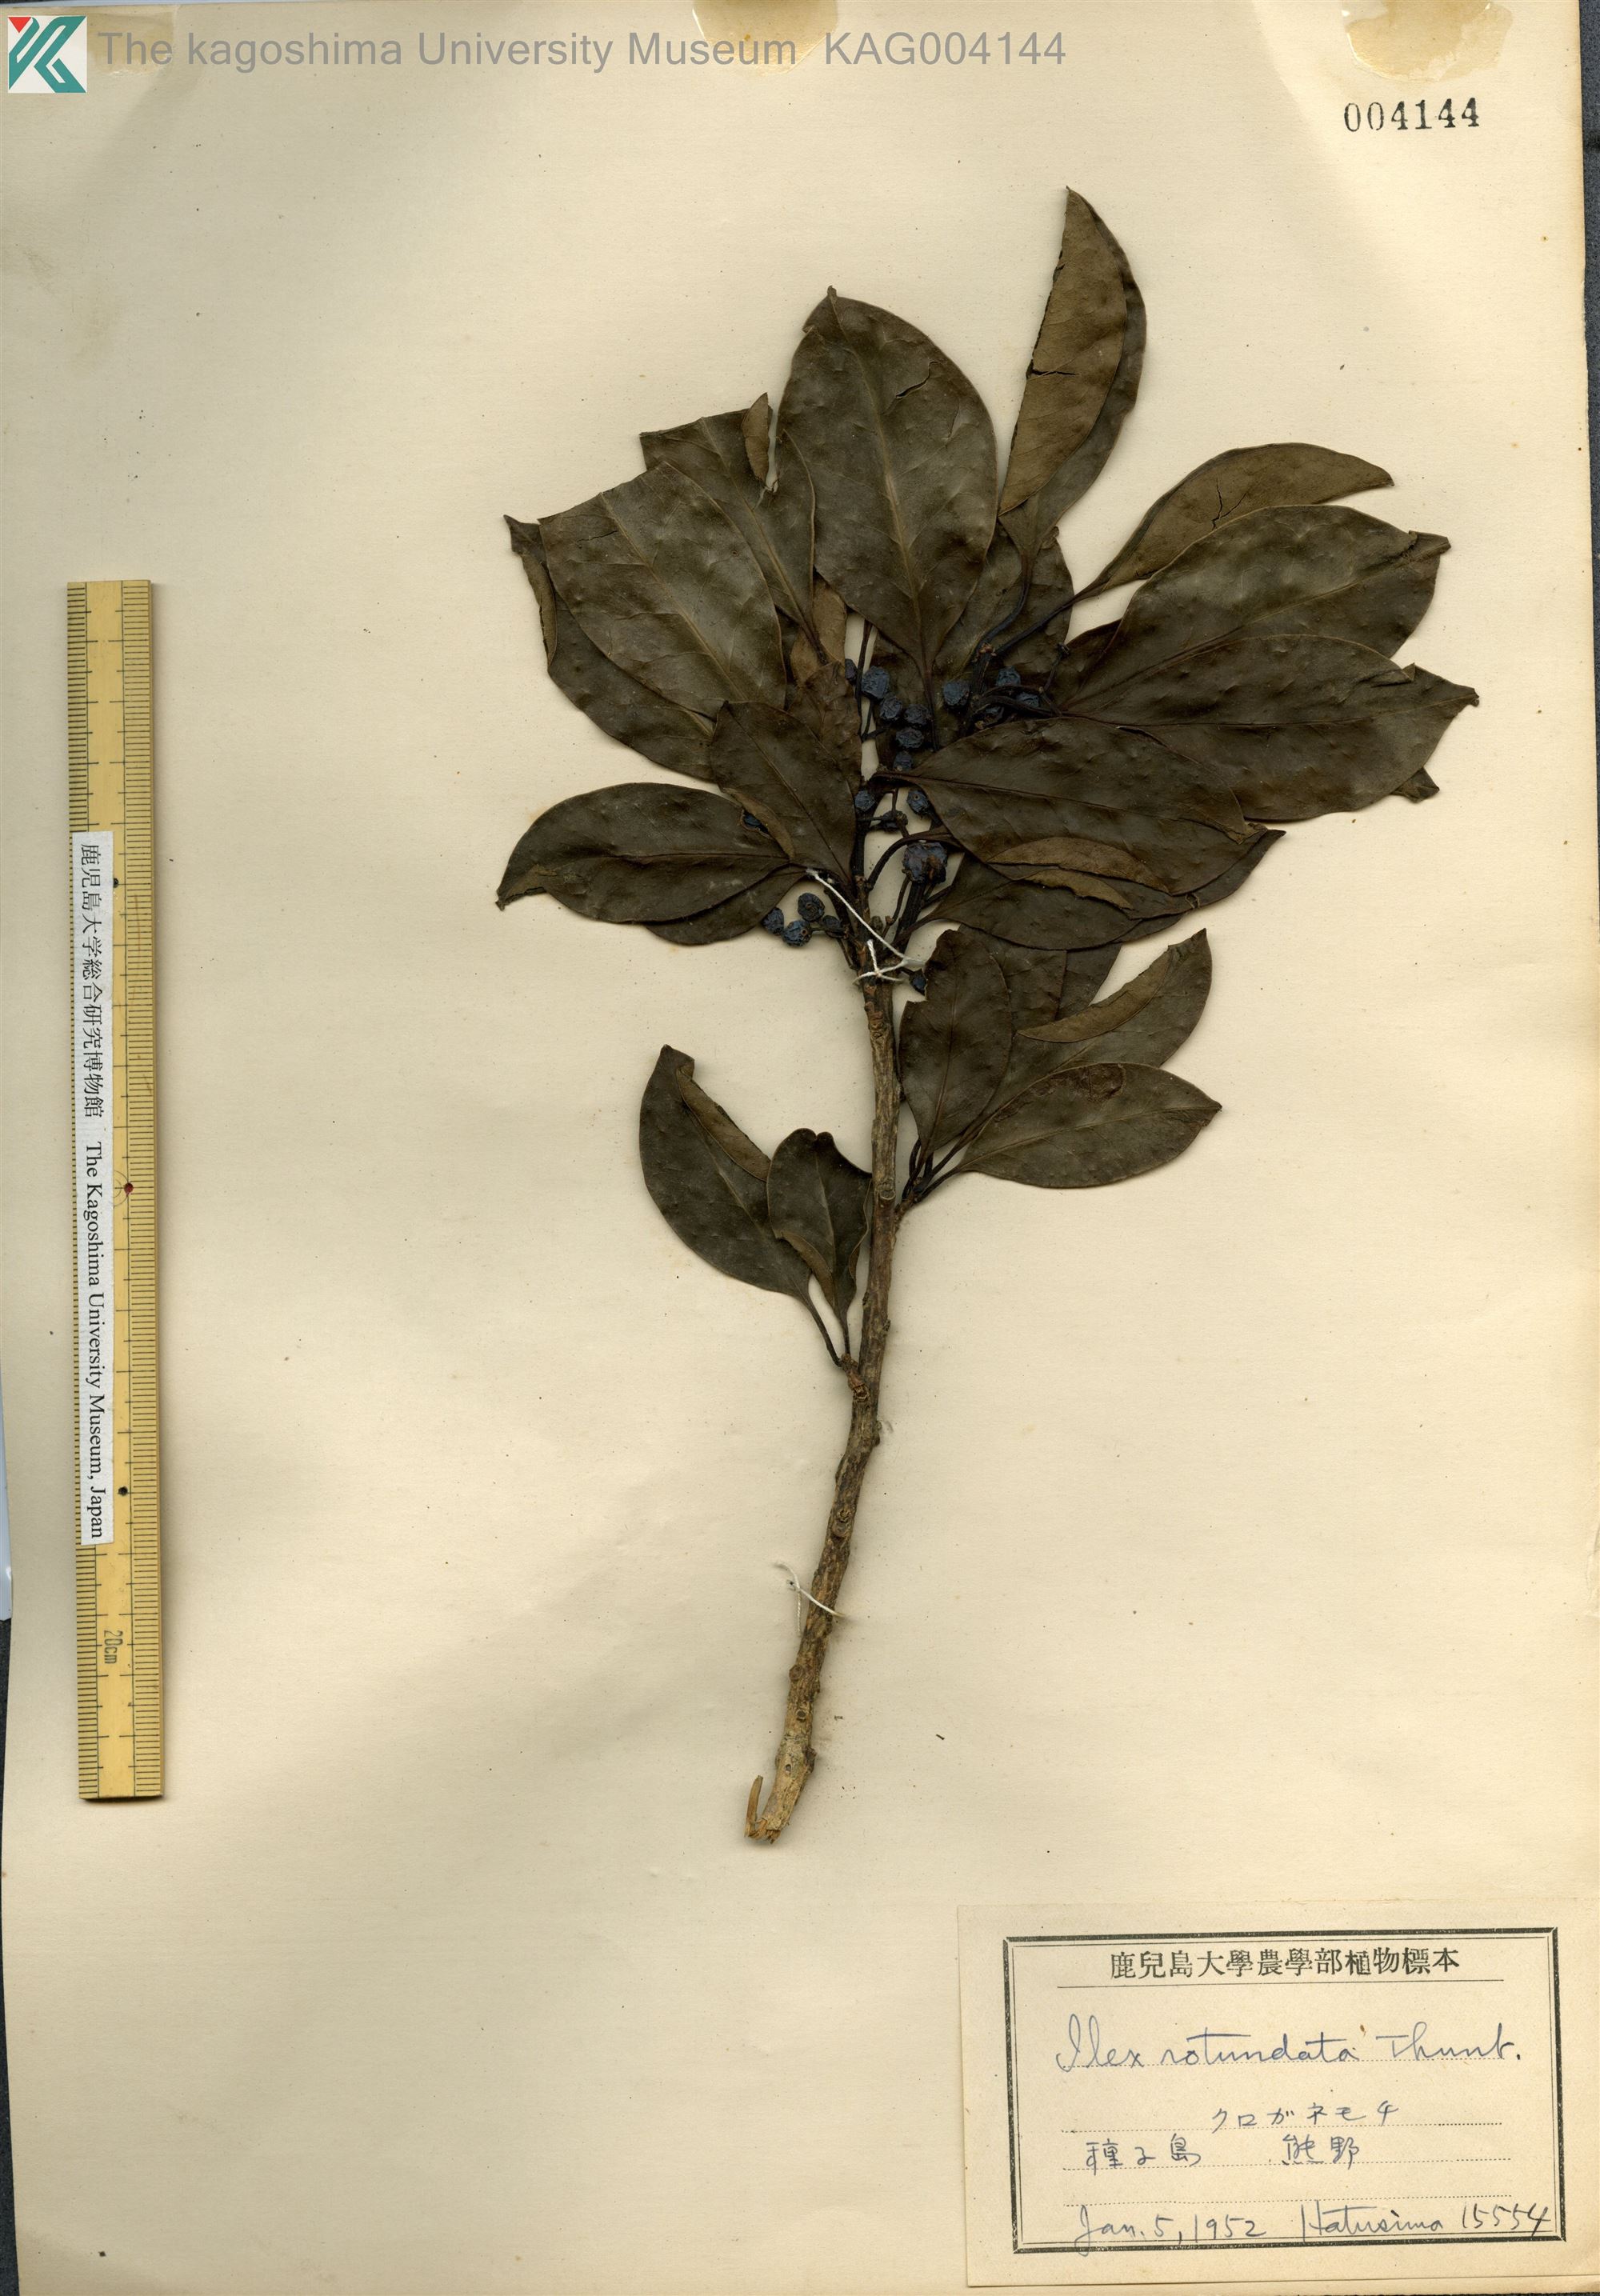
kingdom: Plantae
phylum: Tracheophyta
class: Magnoliopsida
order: Aquifoliales
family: Aquifoliaceae
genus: Ilex
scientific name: Ilex rotunda
